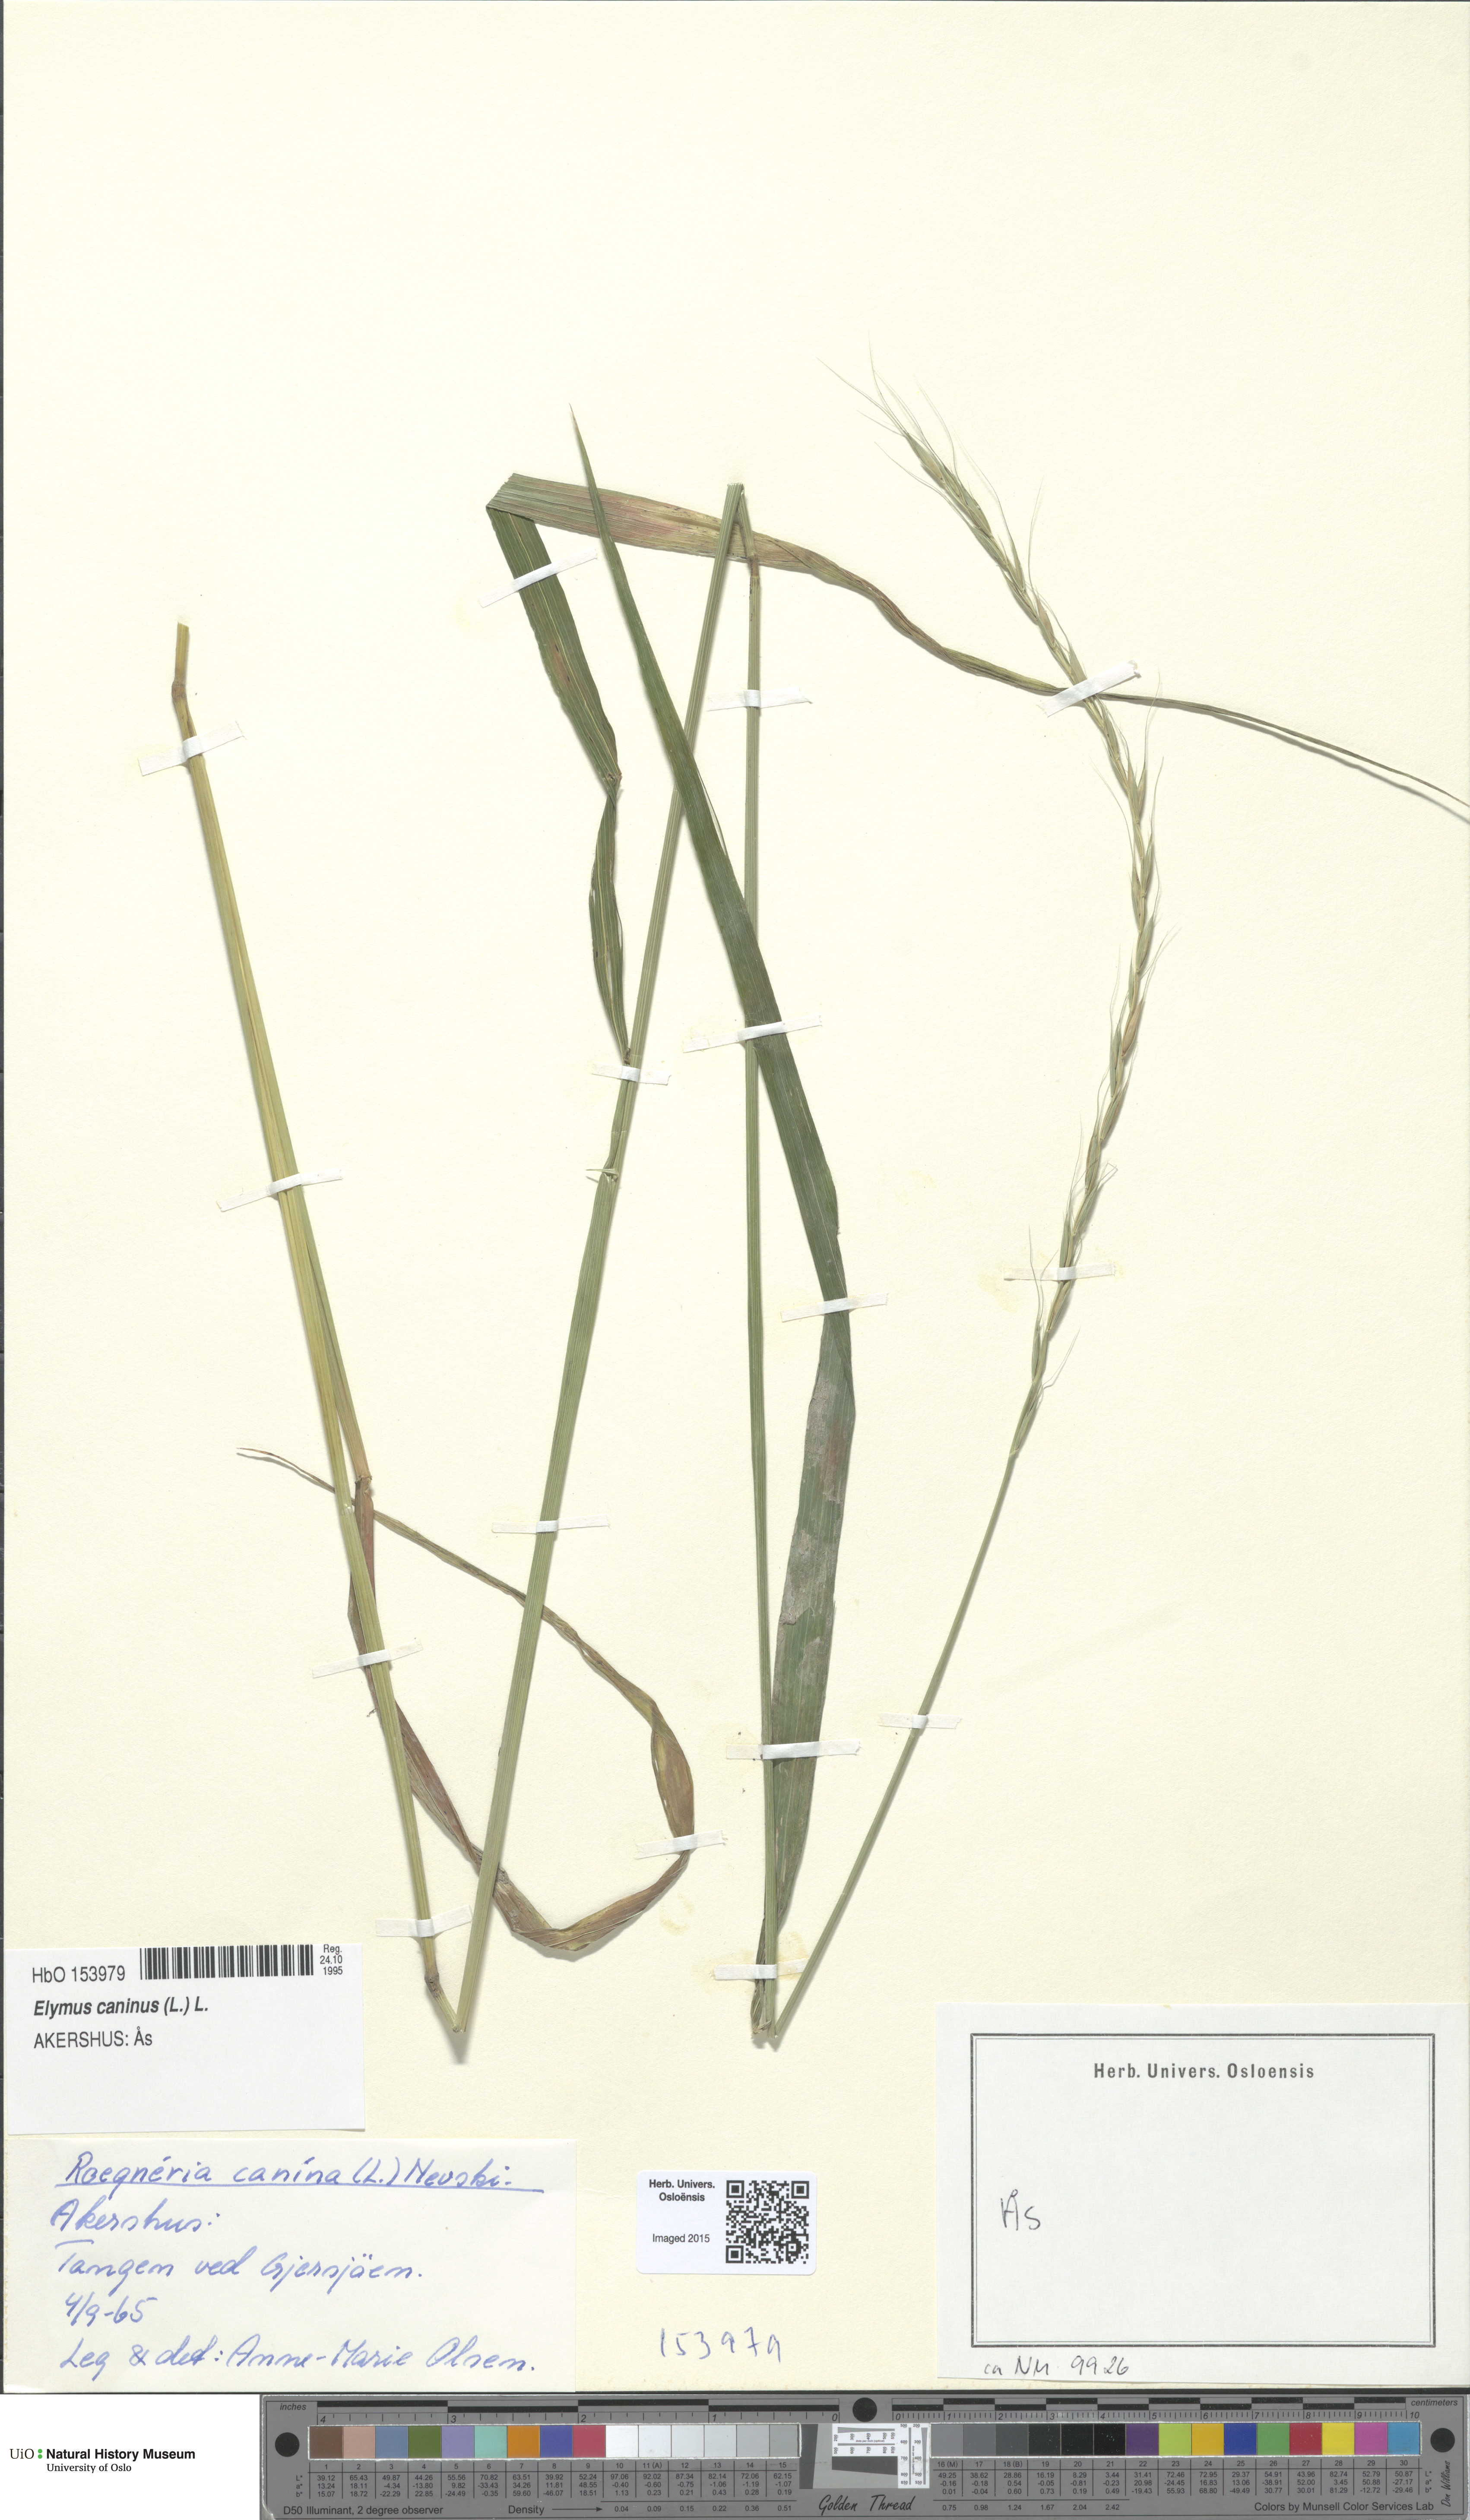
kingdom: Plantae
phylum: Tracheophyta
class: Liliopsida
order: Poales
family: Poaceae
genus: Elymus
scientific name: Elymus caninus
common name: Bearded couch
